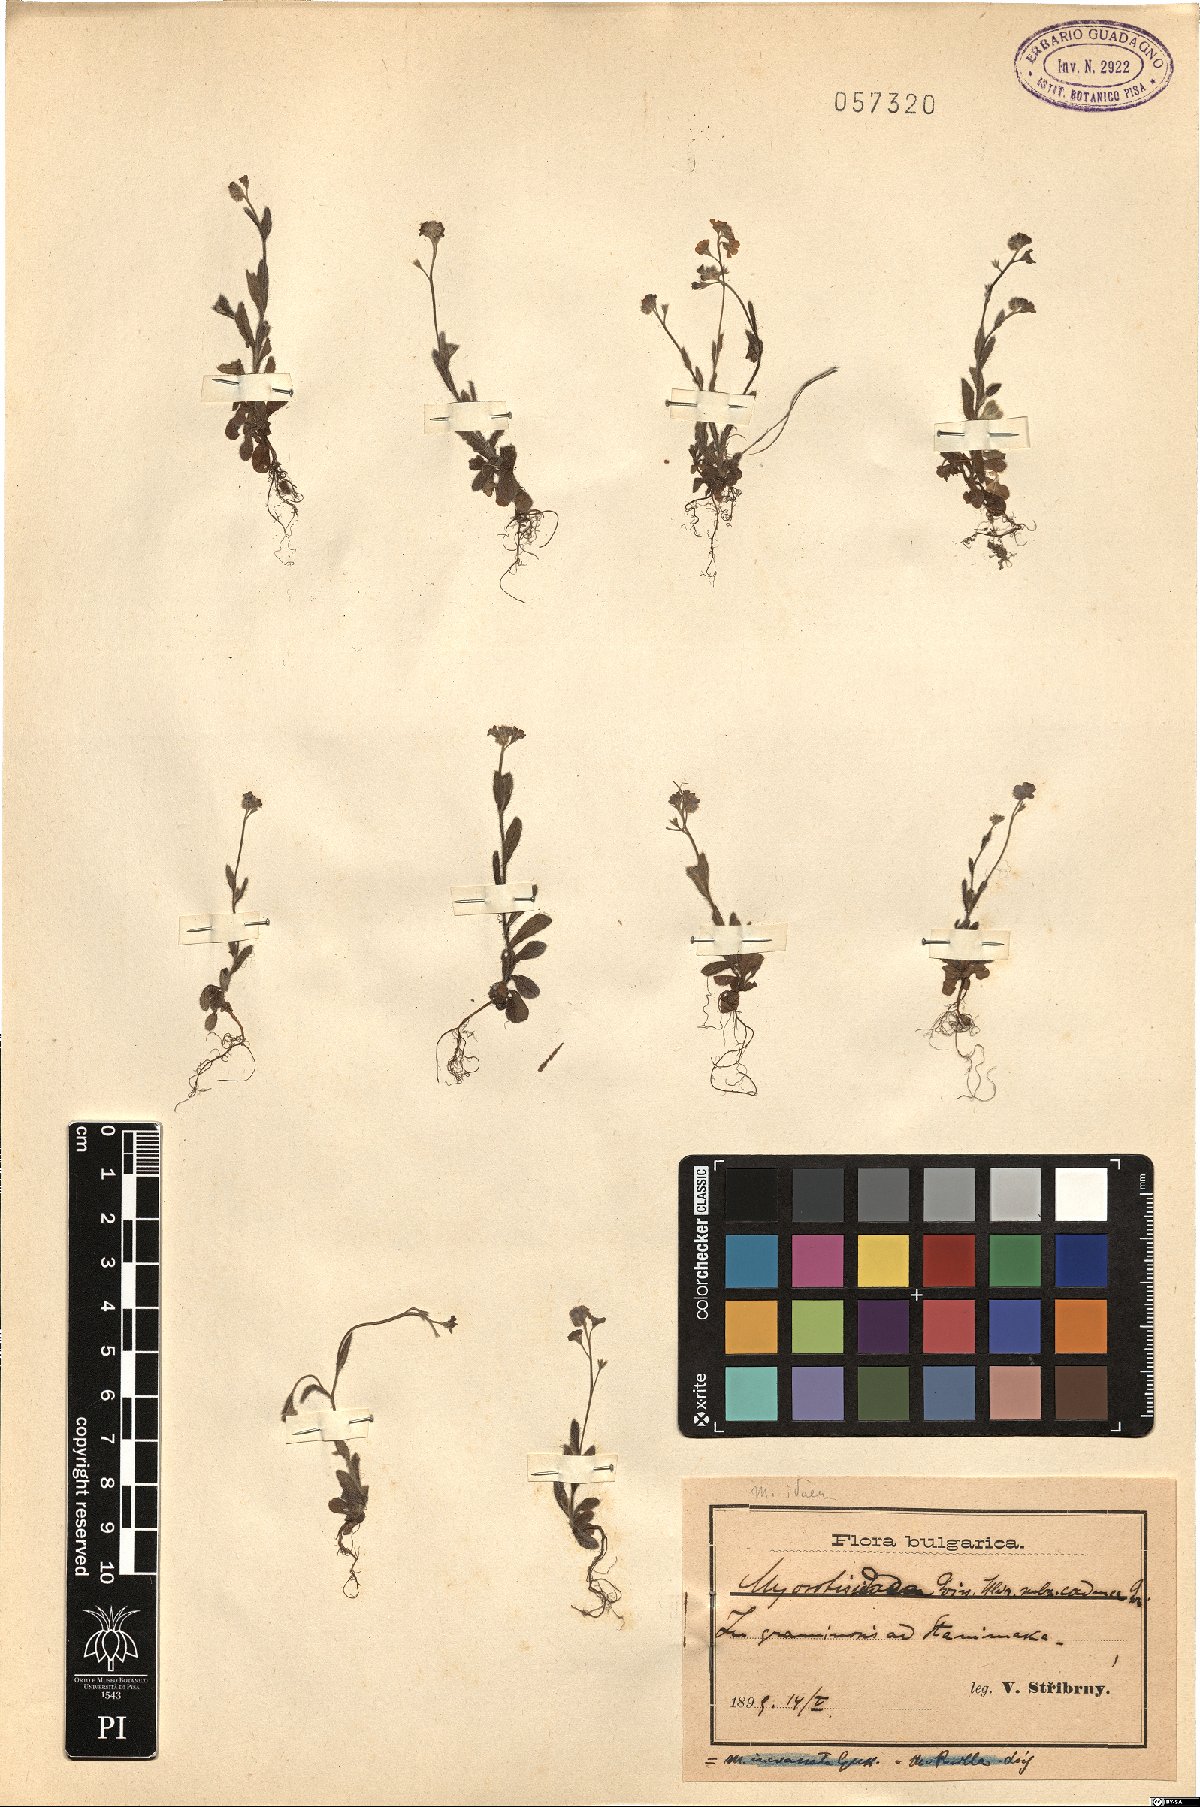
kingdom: Plantae
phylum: Tracheophyta
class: Magnoliopsida
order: Boraginales
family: Boraginaceae
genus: Myosotis
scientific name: Myosotis incrassata
